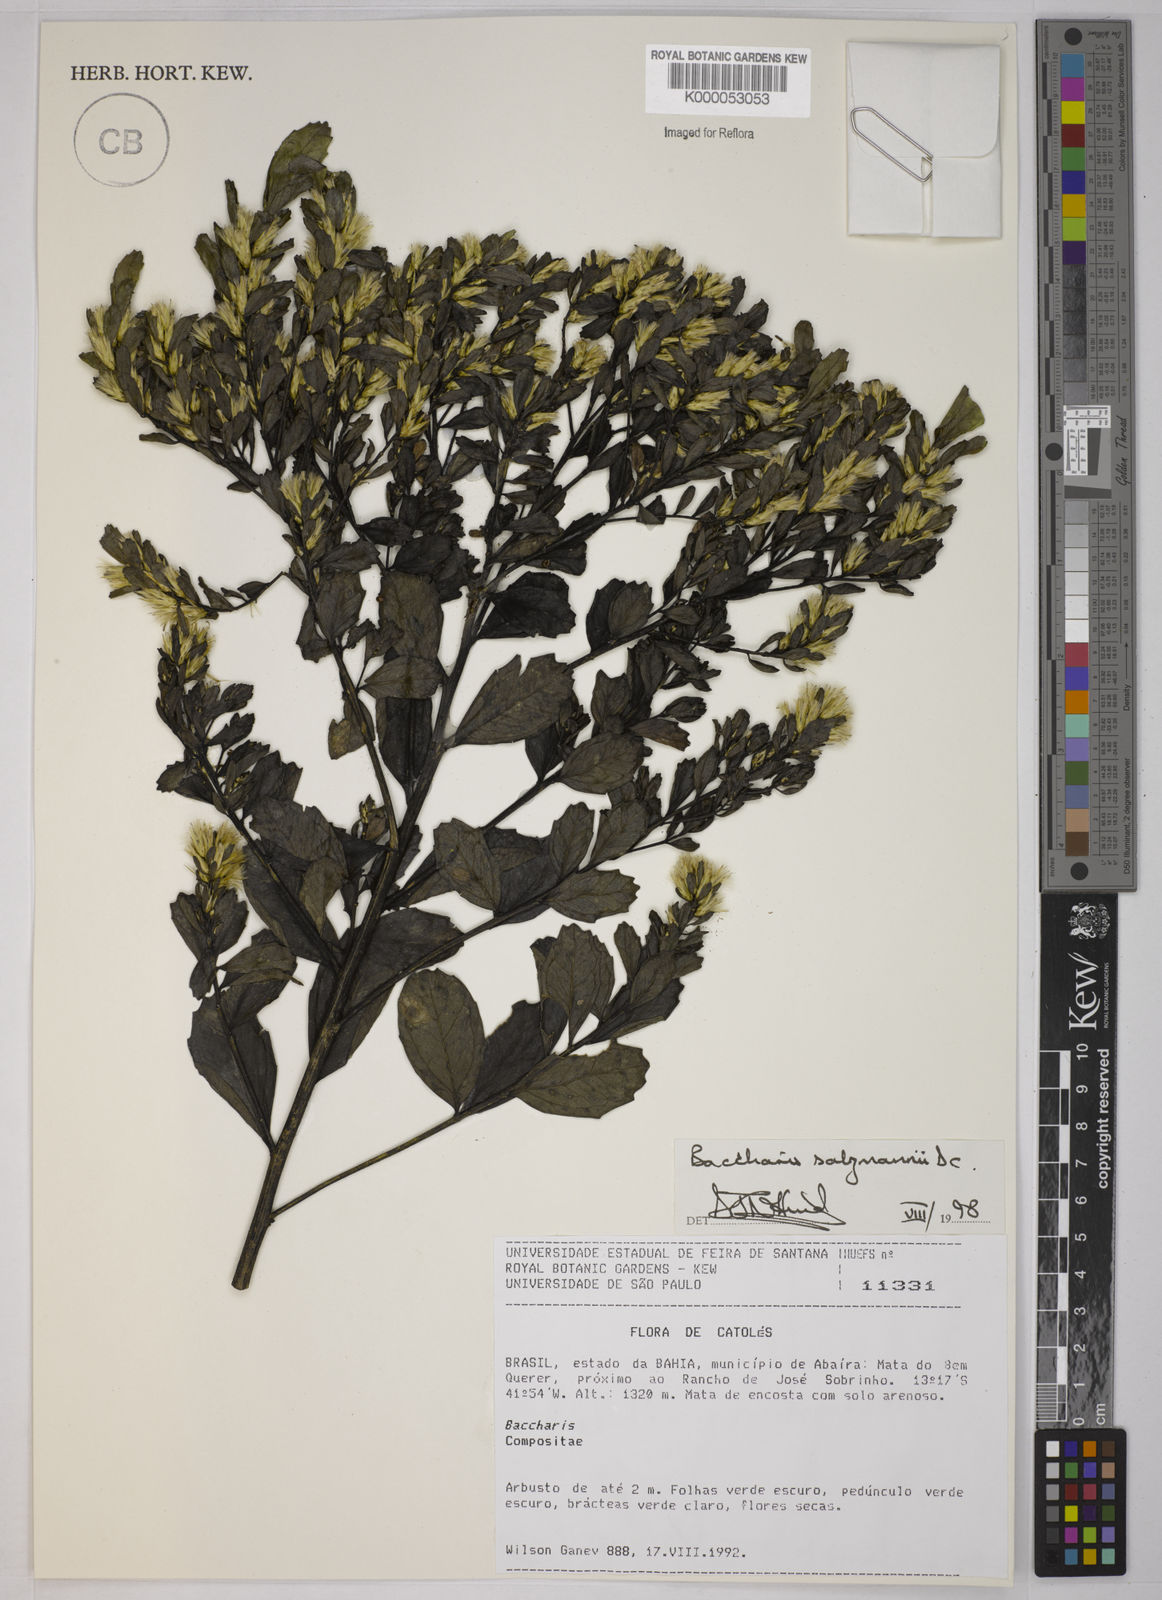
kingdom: Plantae
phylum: Tracheophyta
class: Magnoliopsida
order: Asterales
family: Asteraceae
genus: Baccharis
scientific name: Baccharis retusa
